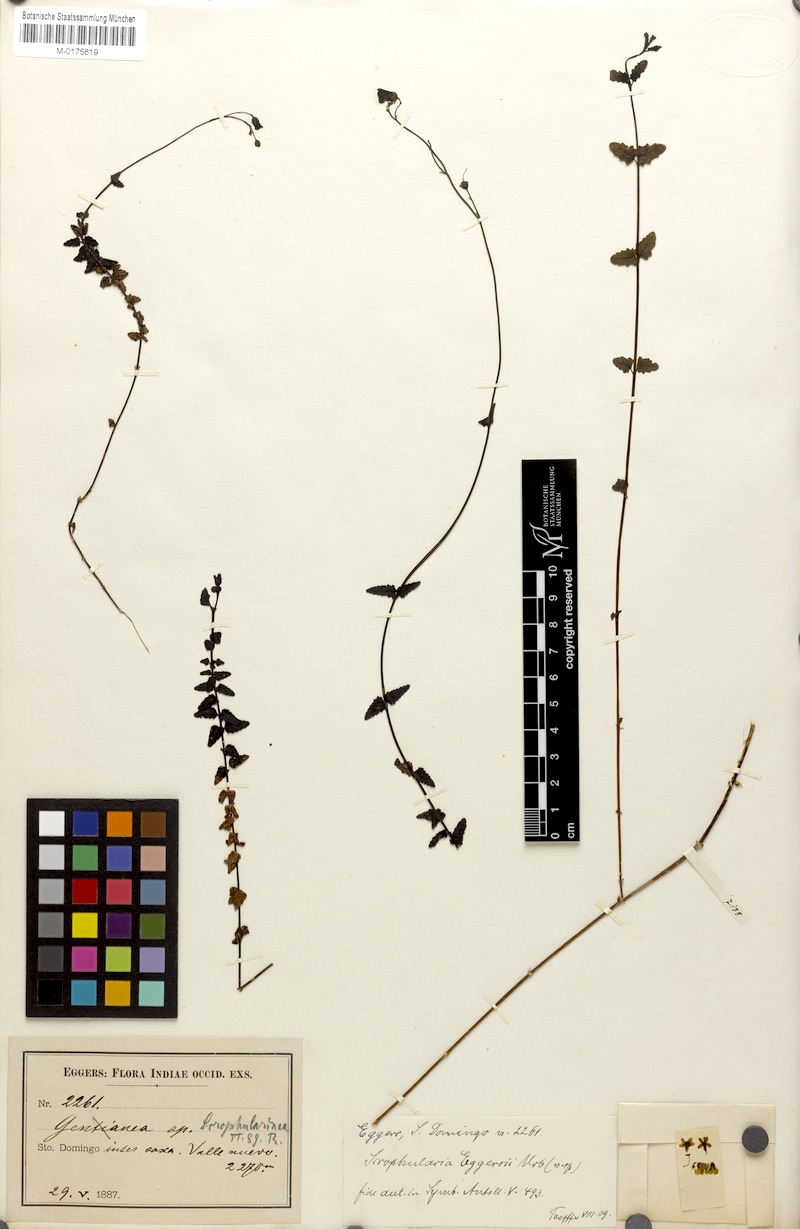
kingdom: Plantae
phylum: Tracheophyta
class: Magnoliopsida
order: Lamiales
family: Scrophulariaceae
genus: Scrophularia
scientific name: Scrophularia eggersii
